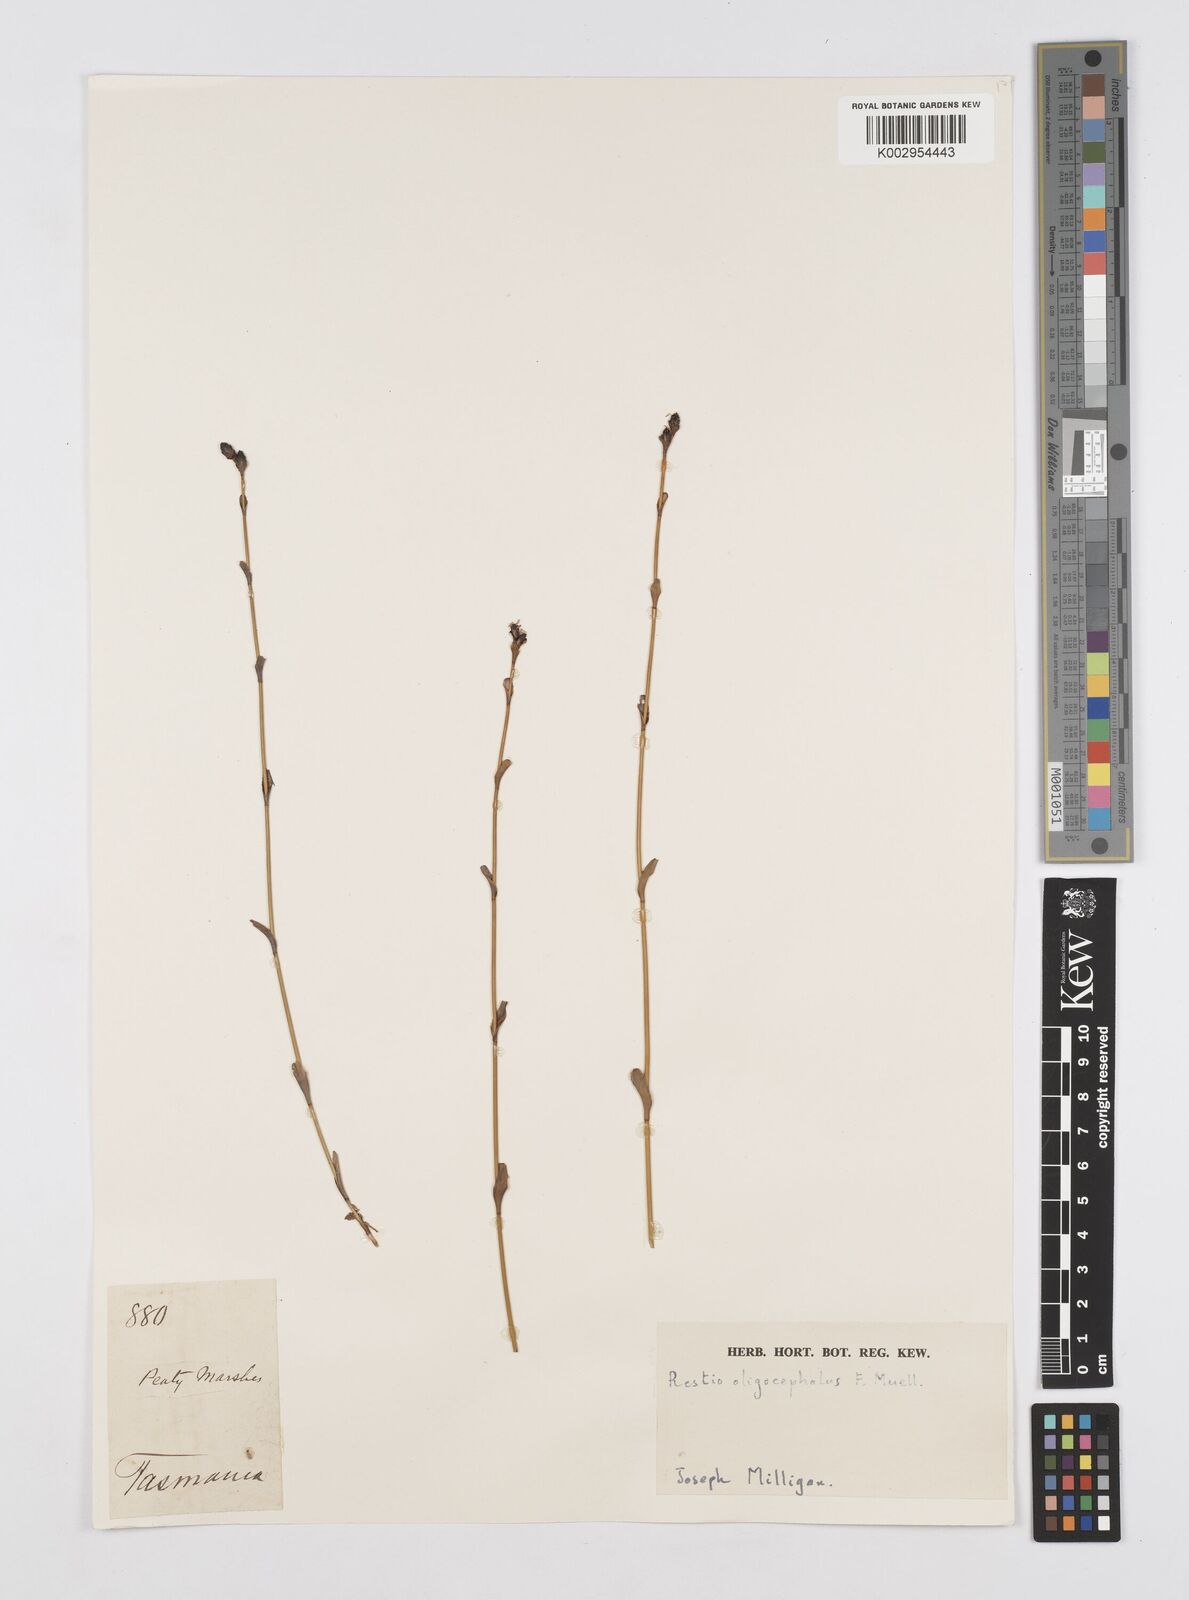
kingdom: Plantae
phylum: Tracheophyta
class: Liliopsida
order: Poales
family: Restionaceae
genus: Chordifex
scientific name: Chordifex hookeri
